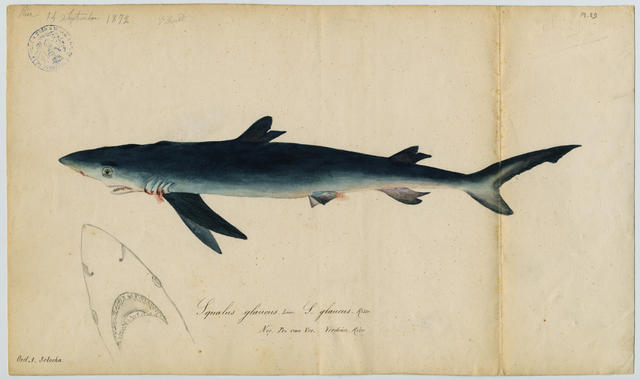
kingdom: Animalia
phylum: Chordata
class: Elasmobranchii
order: Carcharhiniformes
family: Carcharhinidae
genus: Prionace
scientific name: Prionace glauca
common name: Blue shark
